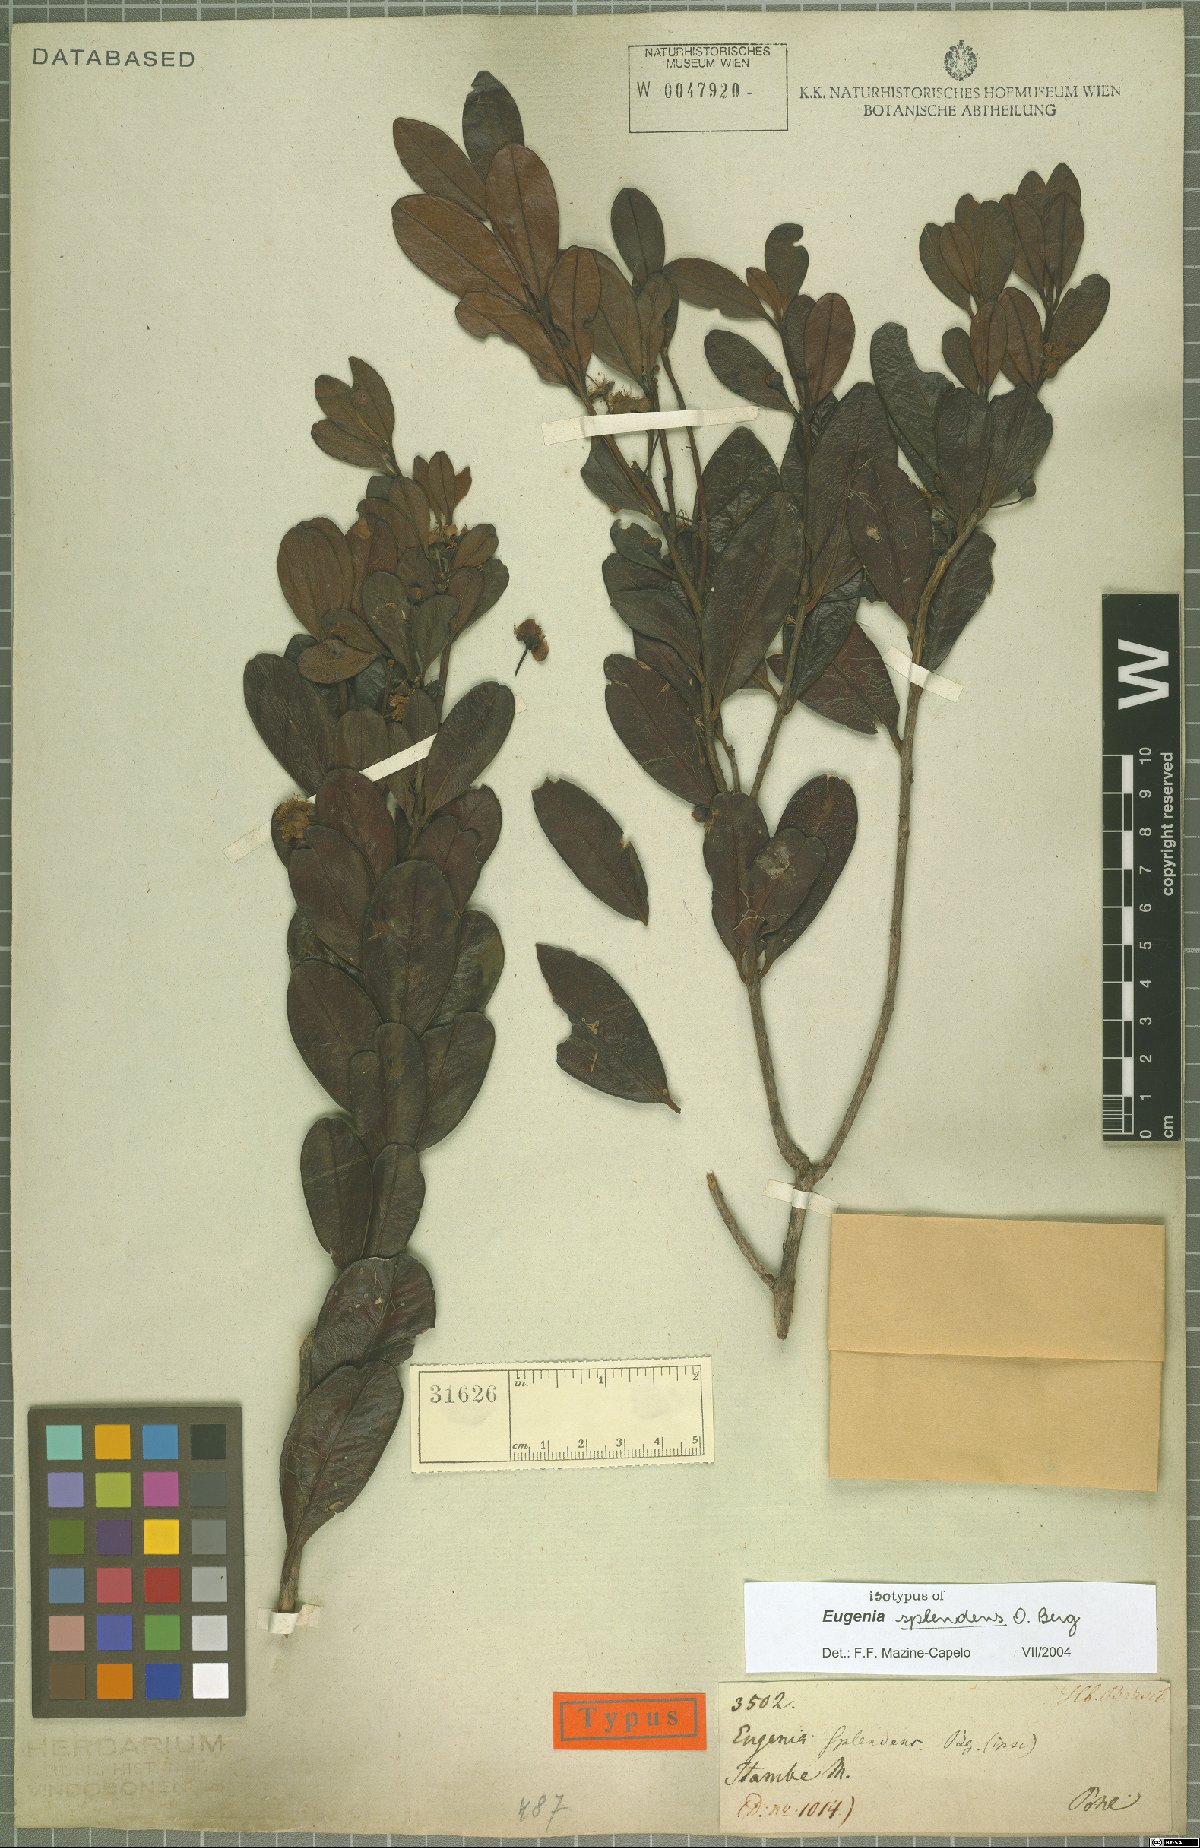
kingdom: Plantae
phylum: Tracheophyta
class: Magnoliopsida
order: Myrtales
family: Myrtaceae
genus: Eugenia
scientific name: Eugenia splendens
